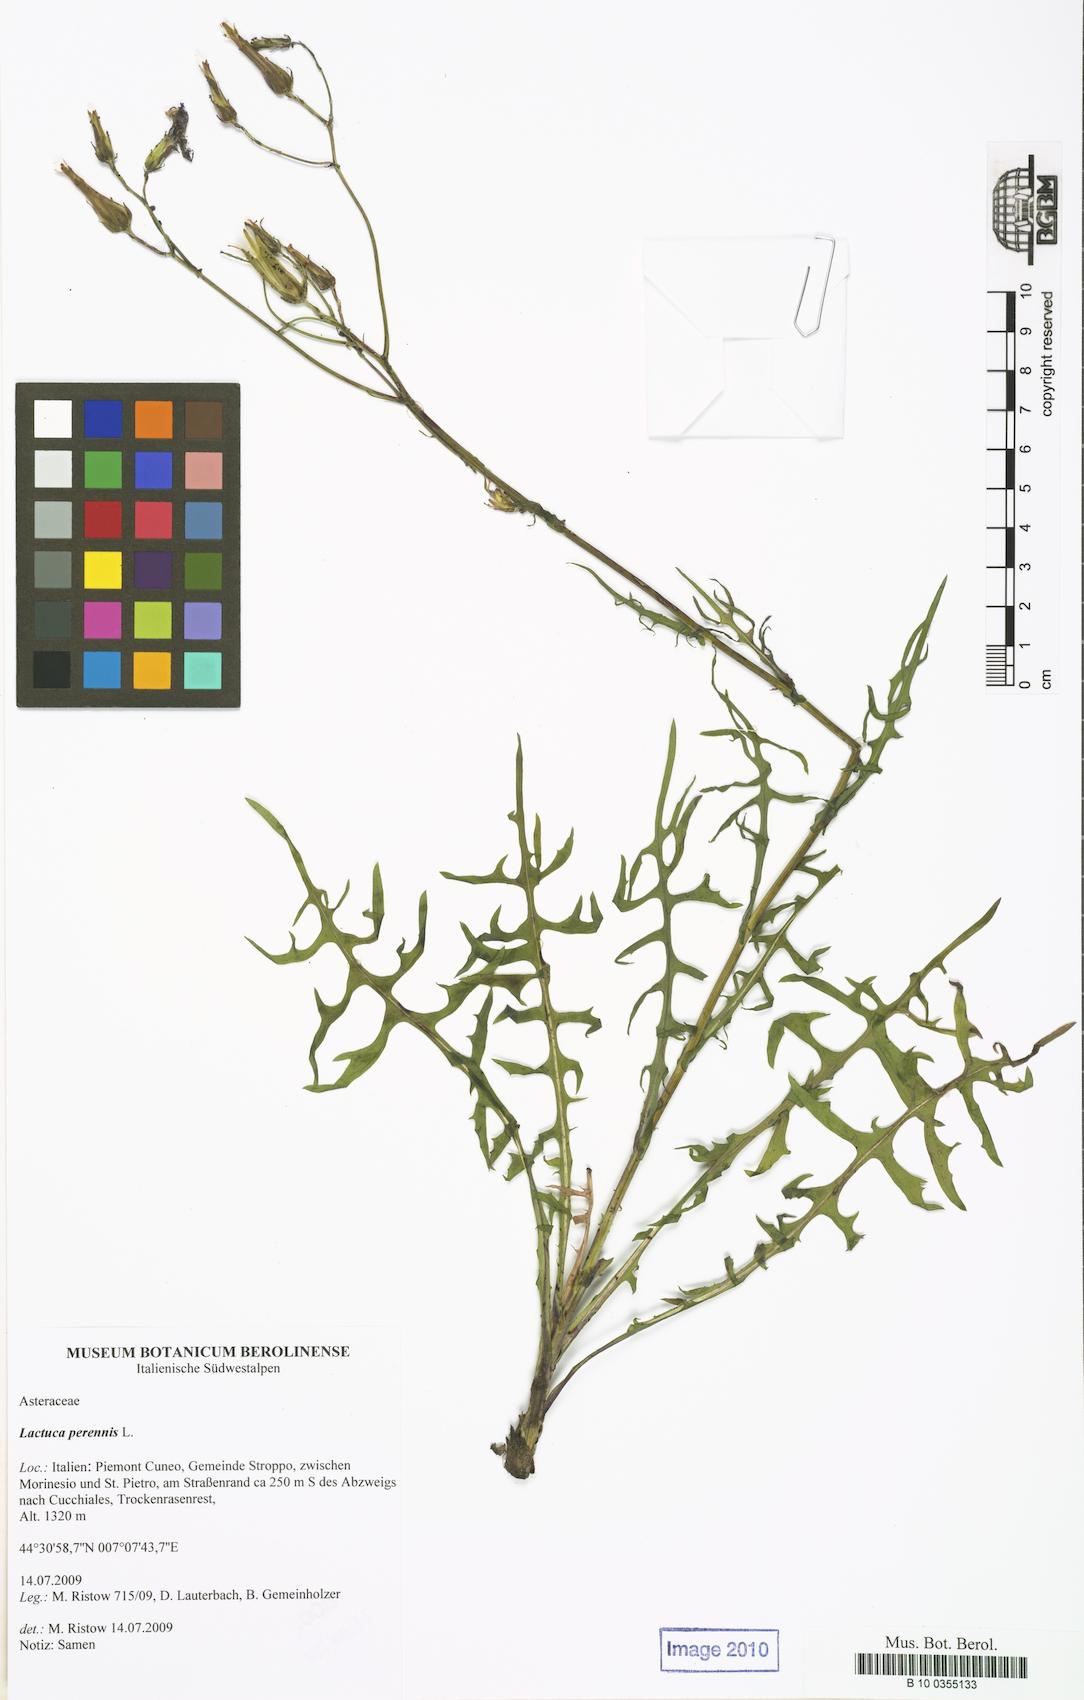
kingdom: Plantae
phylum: Tracheophyta
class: Magnoliopsida
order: Asterales
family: Asteraceae
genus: Lactuca
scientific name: Lactuca perennis
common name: Mountain lettuce
